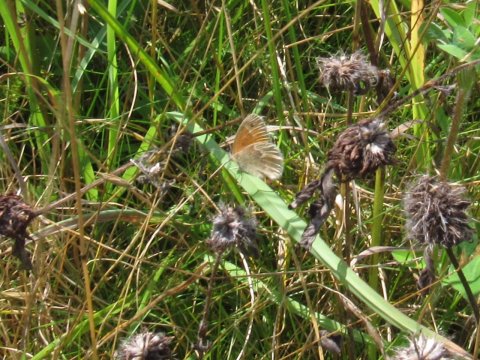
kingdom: Animalia
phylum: Arthropoda
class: Insecta
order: Lepidoptera
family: Nymphalidae
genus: Coenonympha
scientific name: Coenonympha tullia
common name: Large Heath
